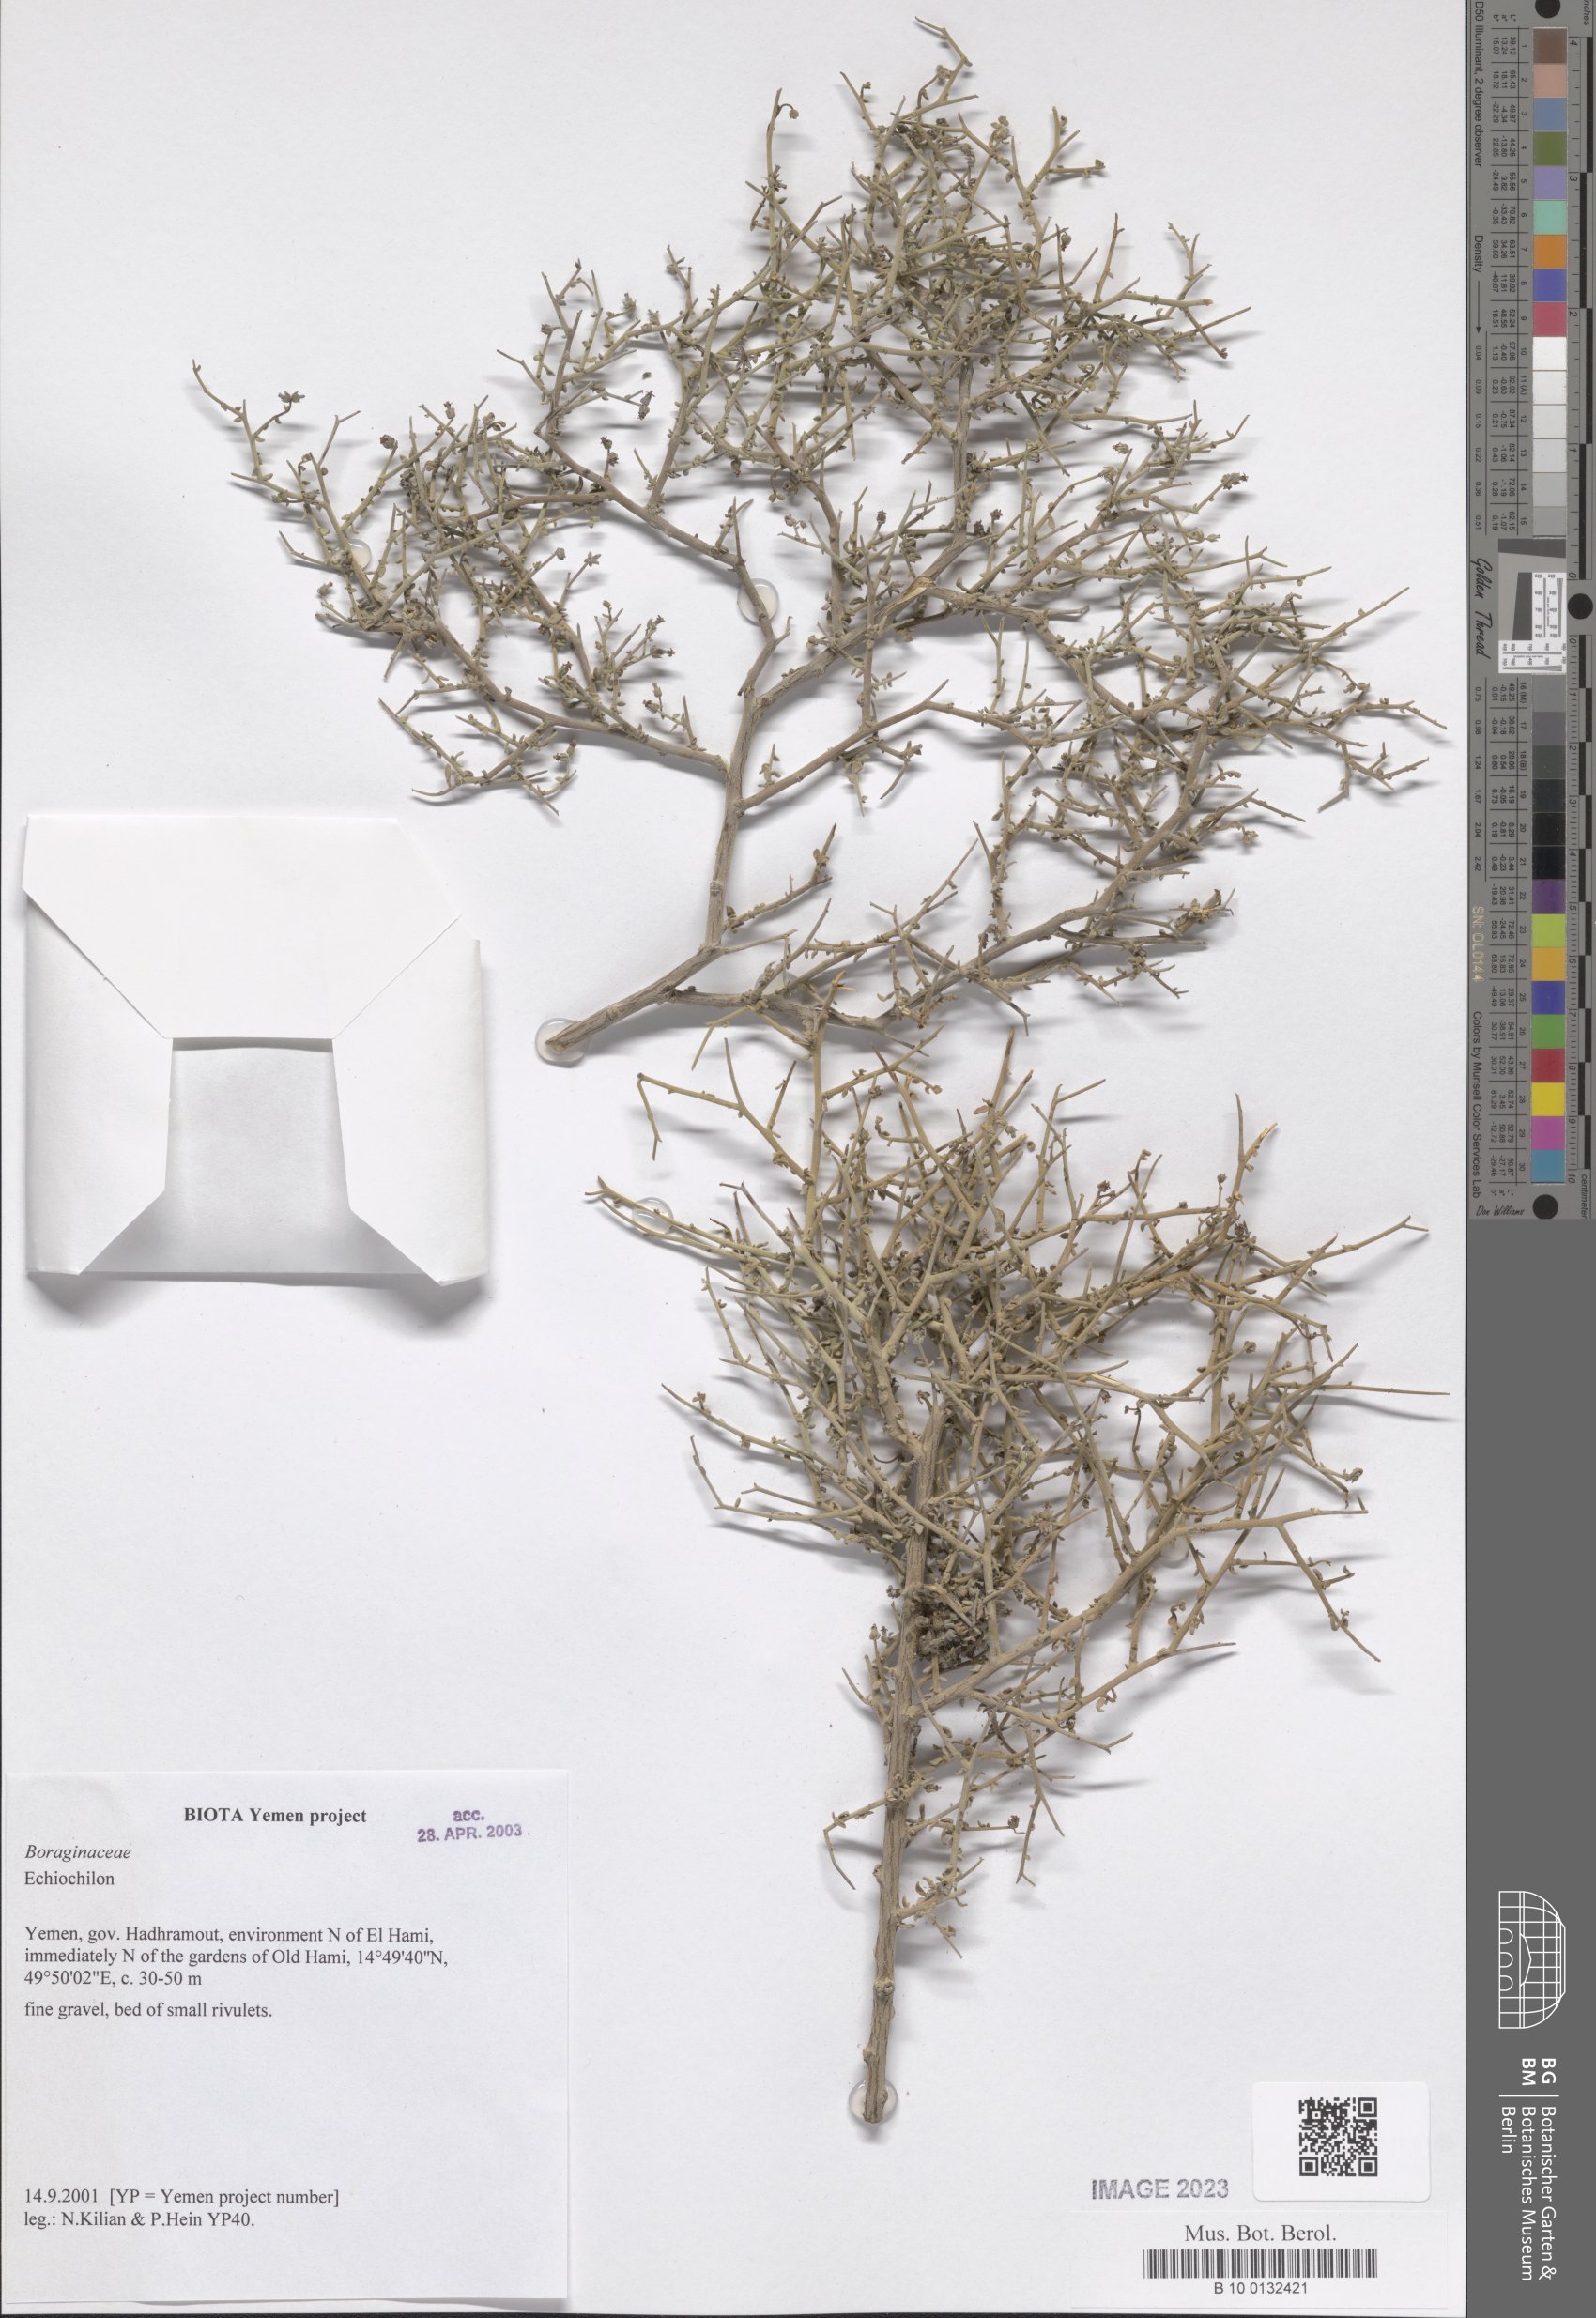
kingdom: Plantae
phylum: Tracheophyta
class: Magnoliopsida
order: Boraginales
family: Boraginaceae
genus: Echiochilon
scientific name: Echiochilon
